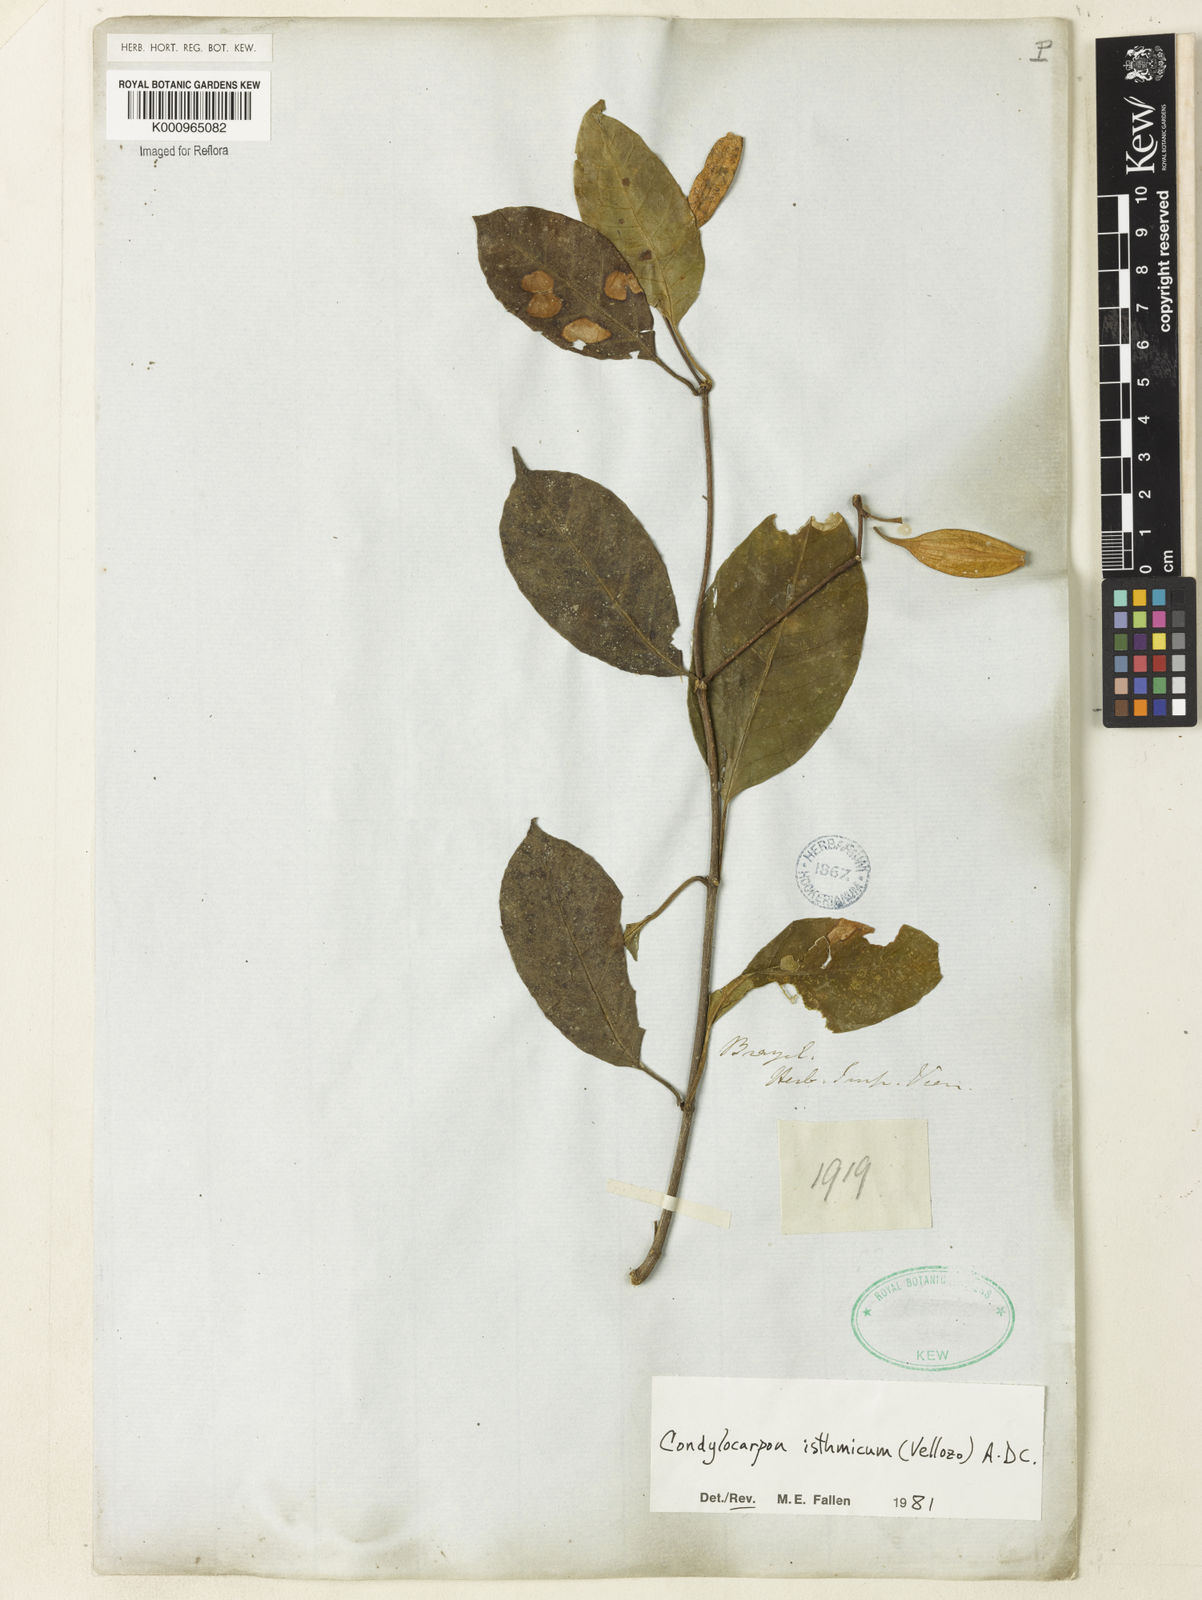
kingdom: Plantae
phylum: Tracheophyta
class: Magnoliopsida
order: Gentianales
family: Apocynaceae
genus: Condylocarpon
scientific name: Condylocarpon isthmicum
